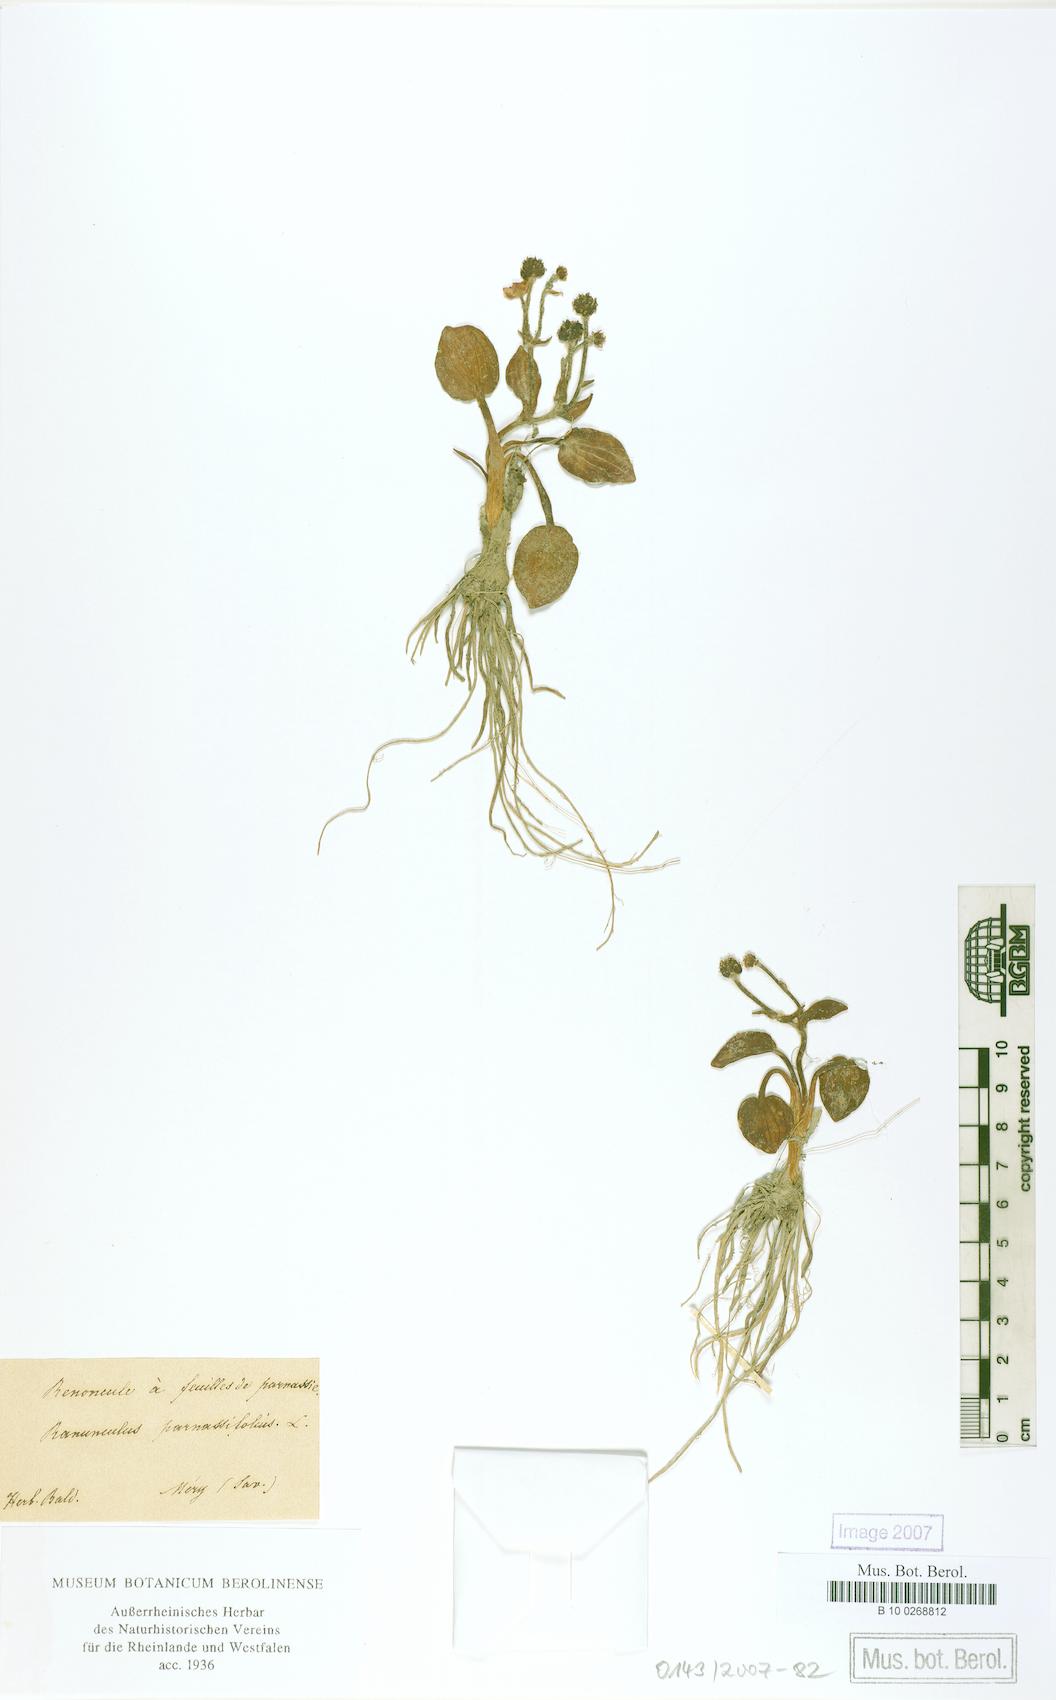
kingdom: Plantae
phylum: Tracheophyta
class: Magnoliopsida
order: Ranunculales
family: Ranunculaceae
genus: Ranunculus
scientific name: Ranunculus parnassiifolius
